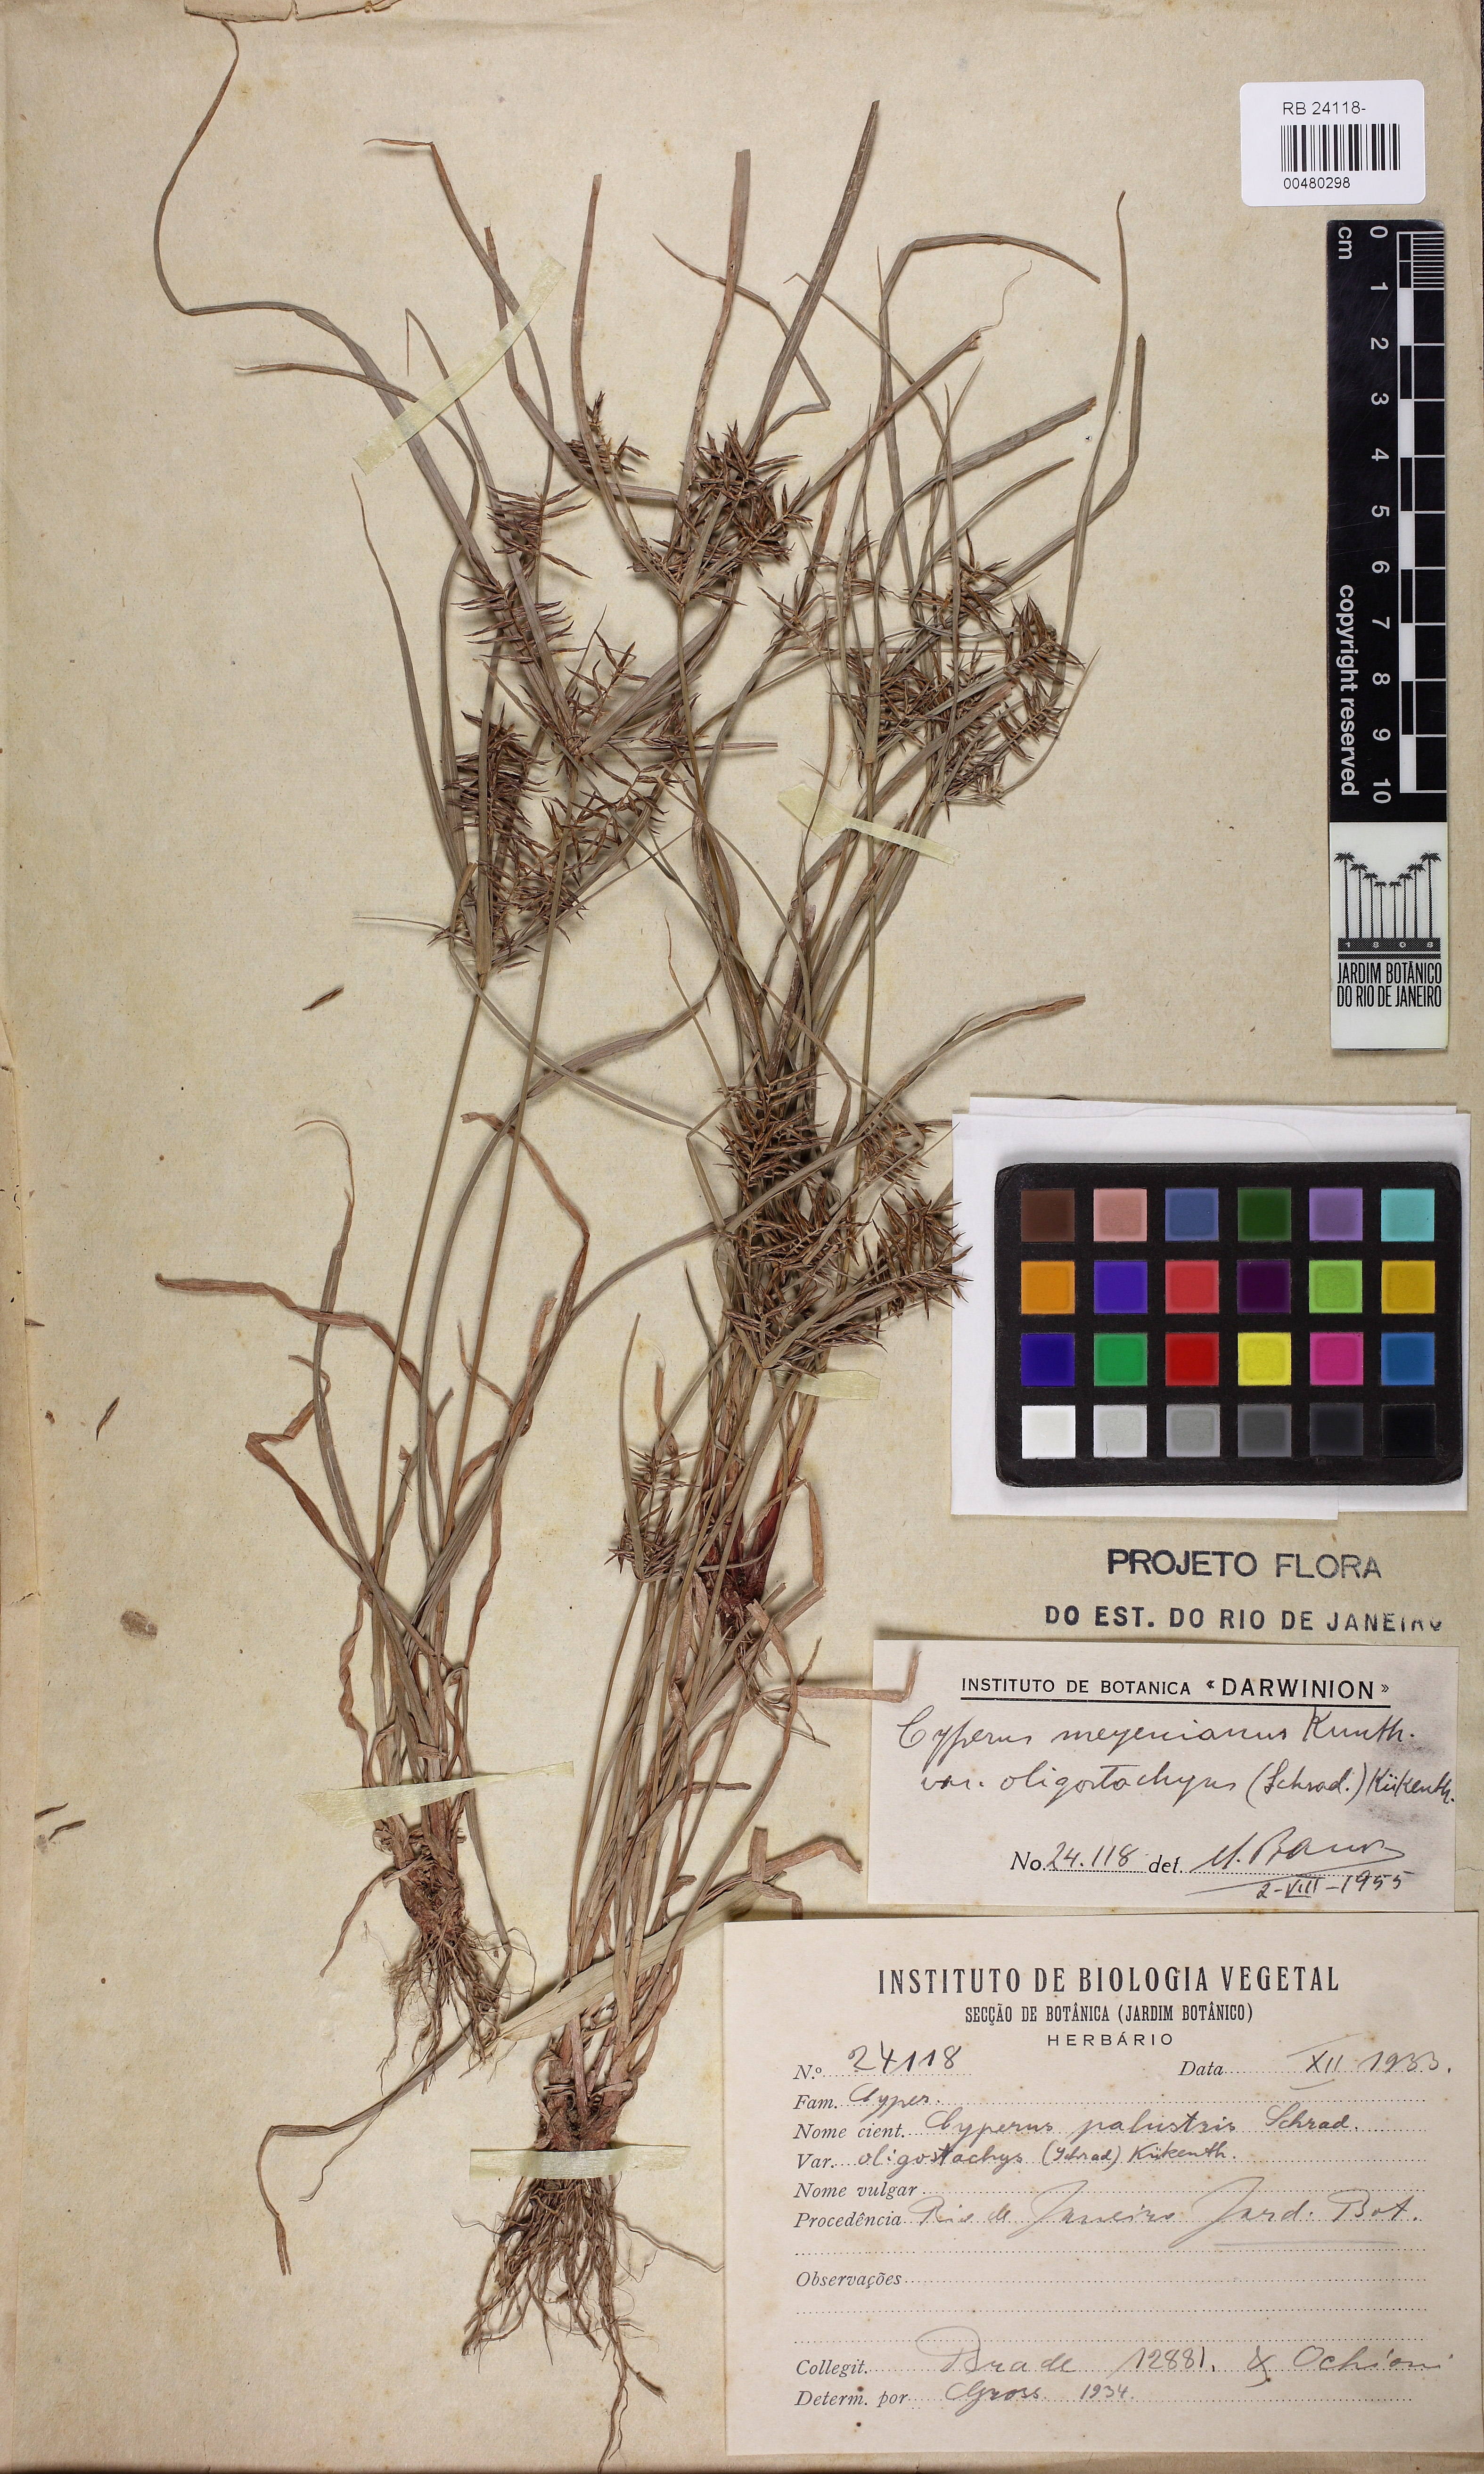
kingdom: Plantae
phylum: Tracheophyta
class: Liliopsida
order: Poales
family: Cyperaceae
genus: Cyperus
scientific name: Cyperus meyenianus
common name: Meyen's flatsedge
